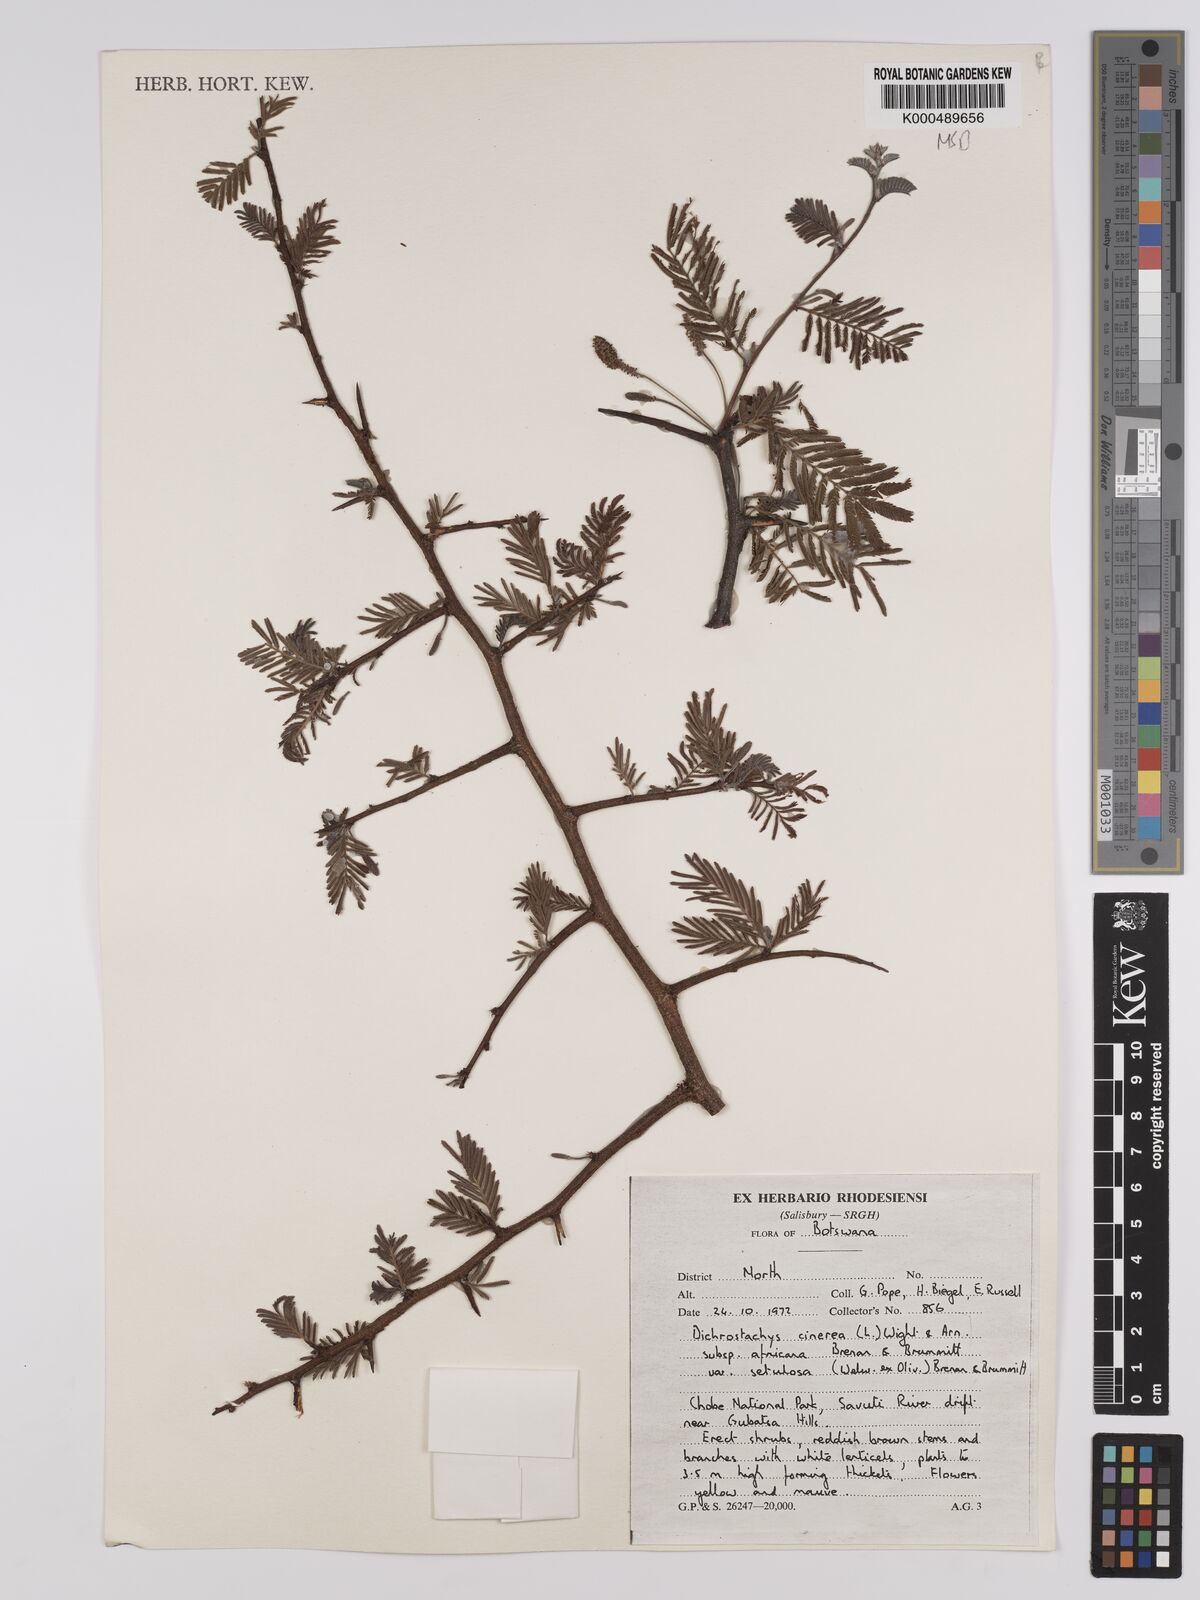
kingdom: Plantae
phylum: Tracheophyta
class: Magnoliopsida
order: Fabales
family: Fabaceae
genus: Dichrostachys
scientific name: Dichrostachys cinerea
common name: Sicklebush
